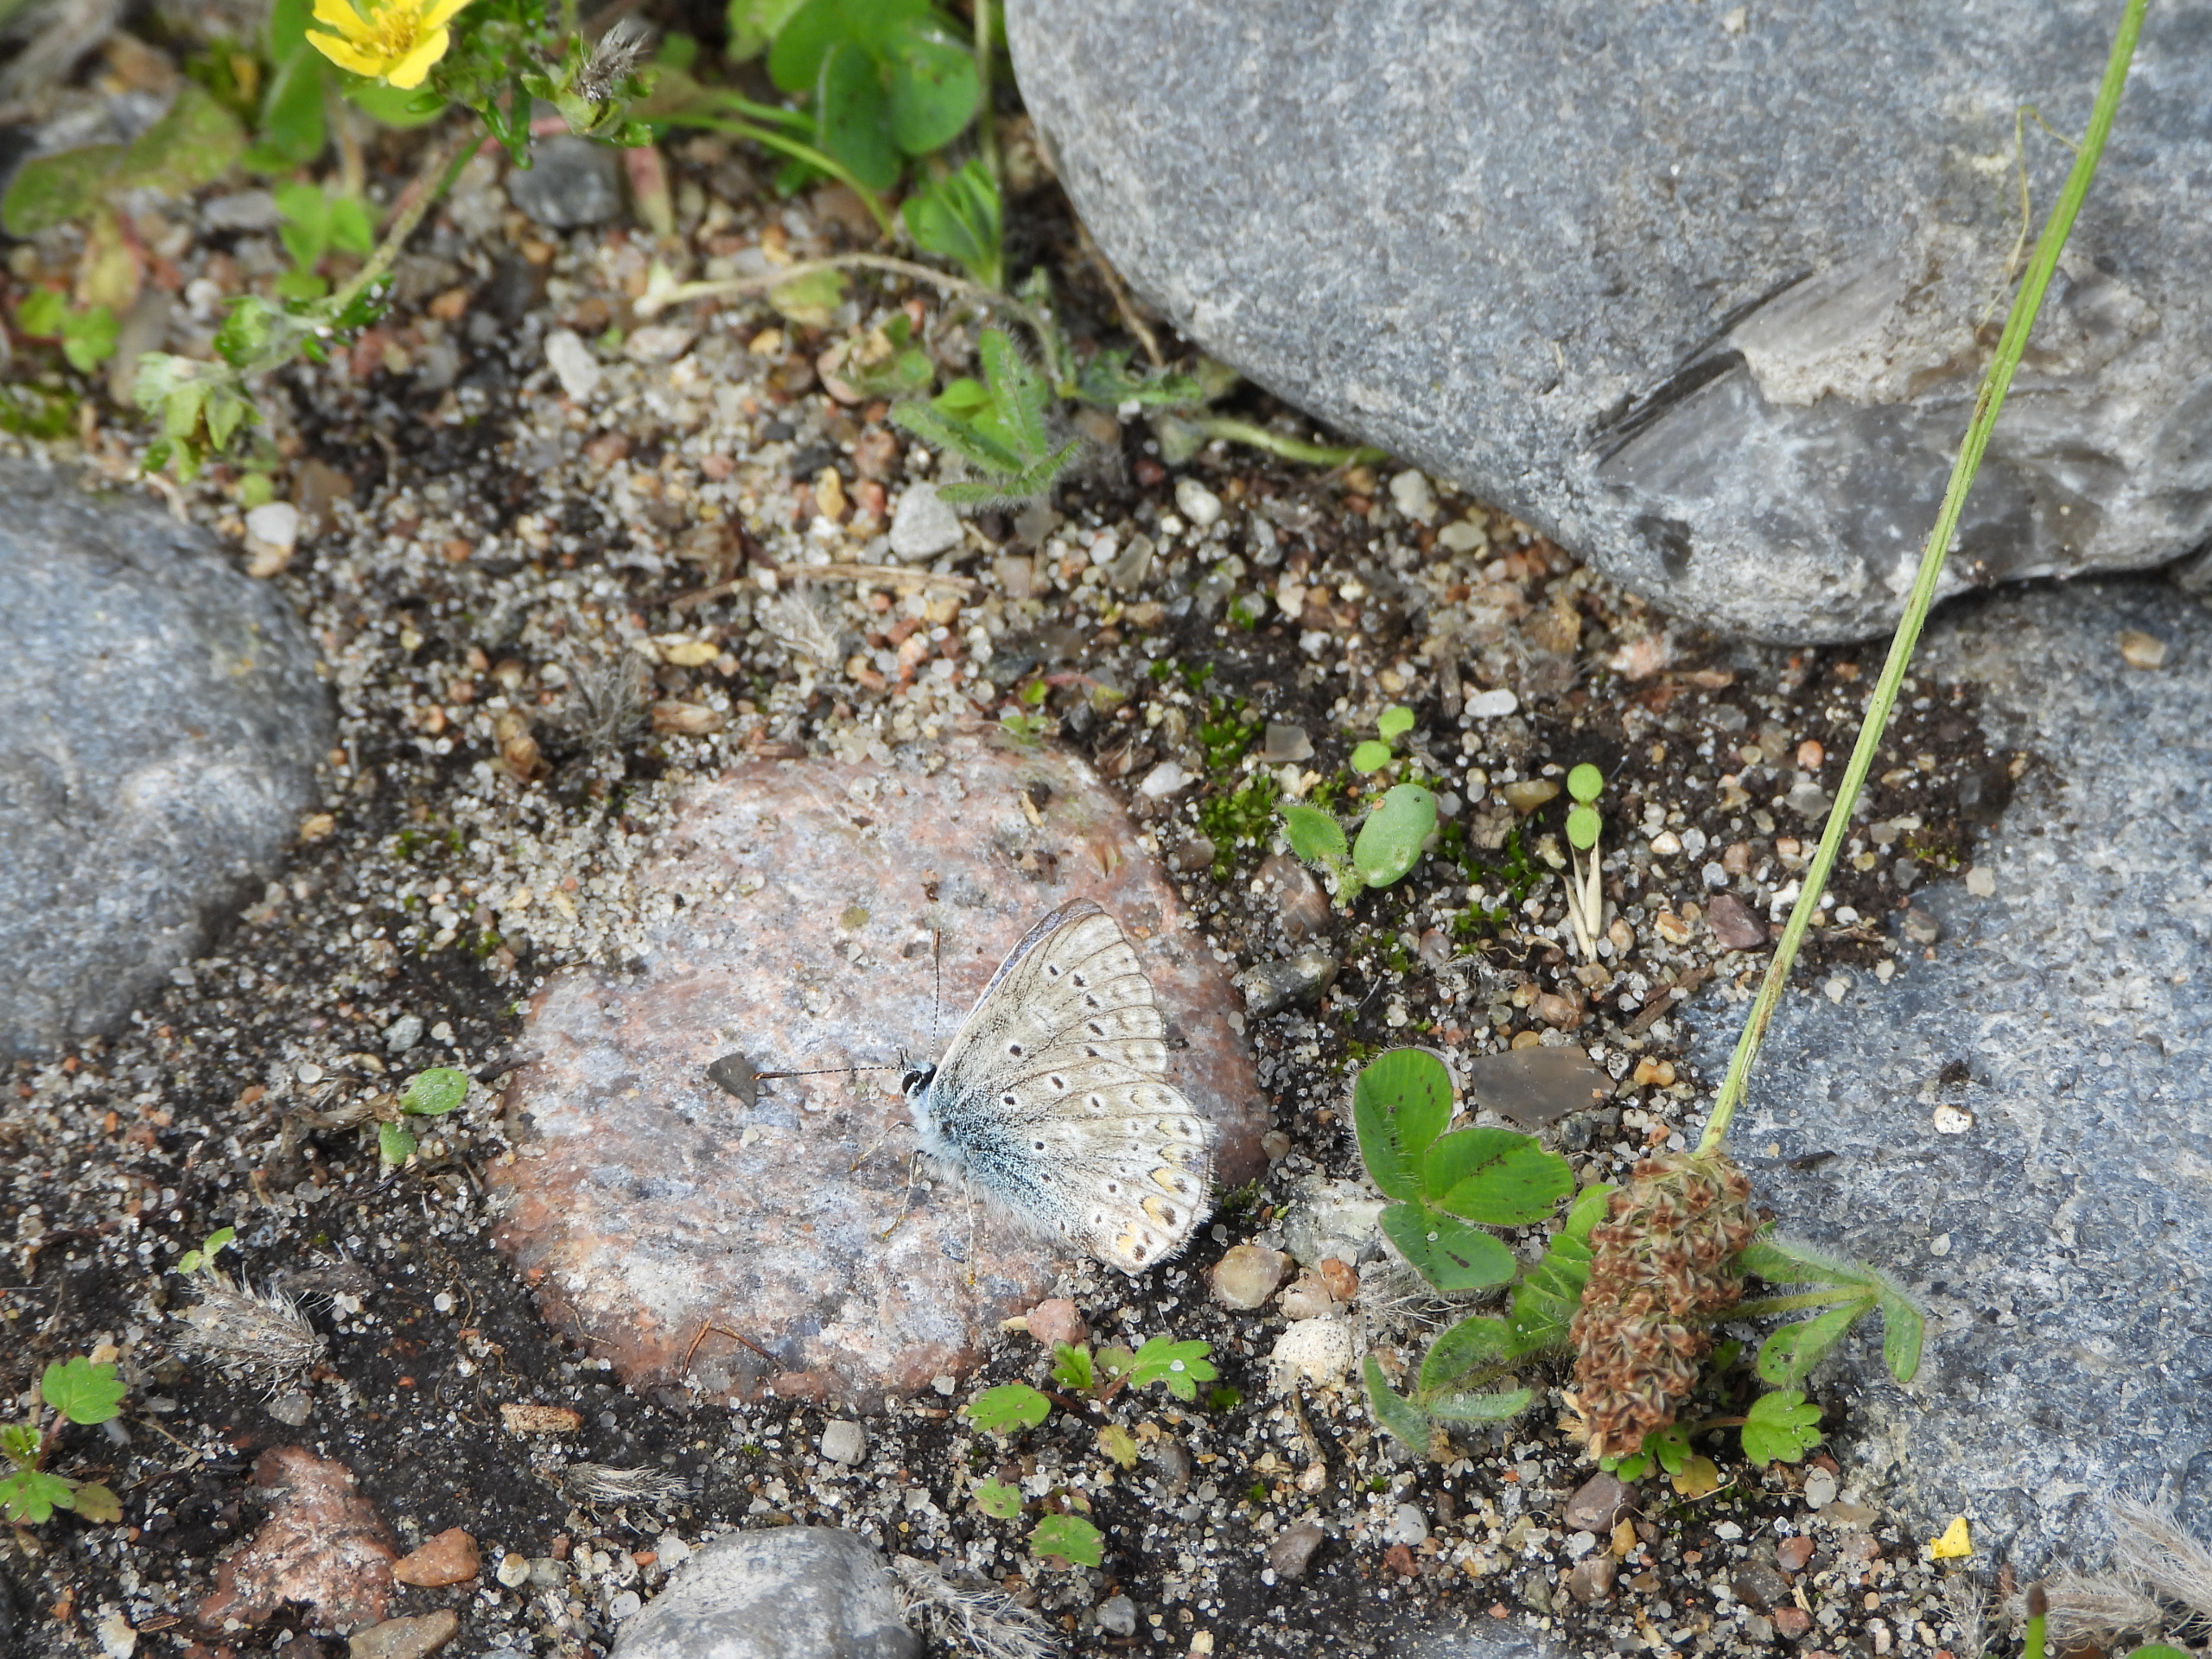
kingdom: Animalia
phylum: Arthropoda
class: Insecta
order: Lepidoptera
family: Lycaenidae
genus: Polyommatus
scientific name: Polyommatus icarus
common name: Almindelig blåfugl
